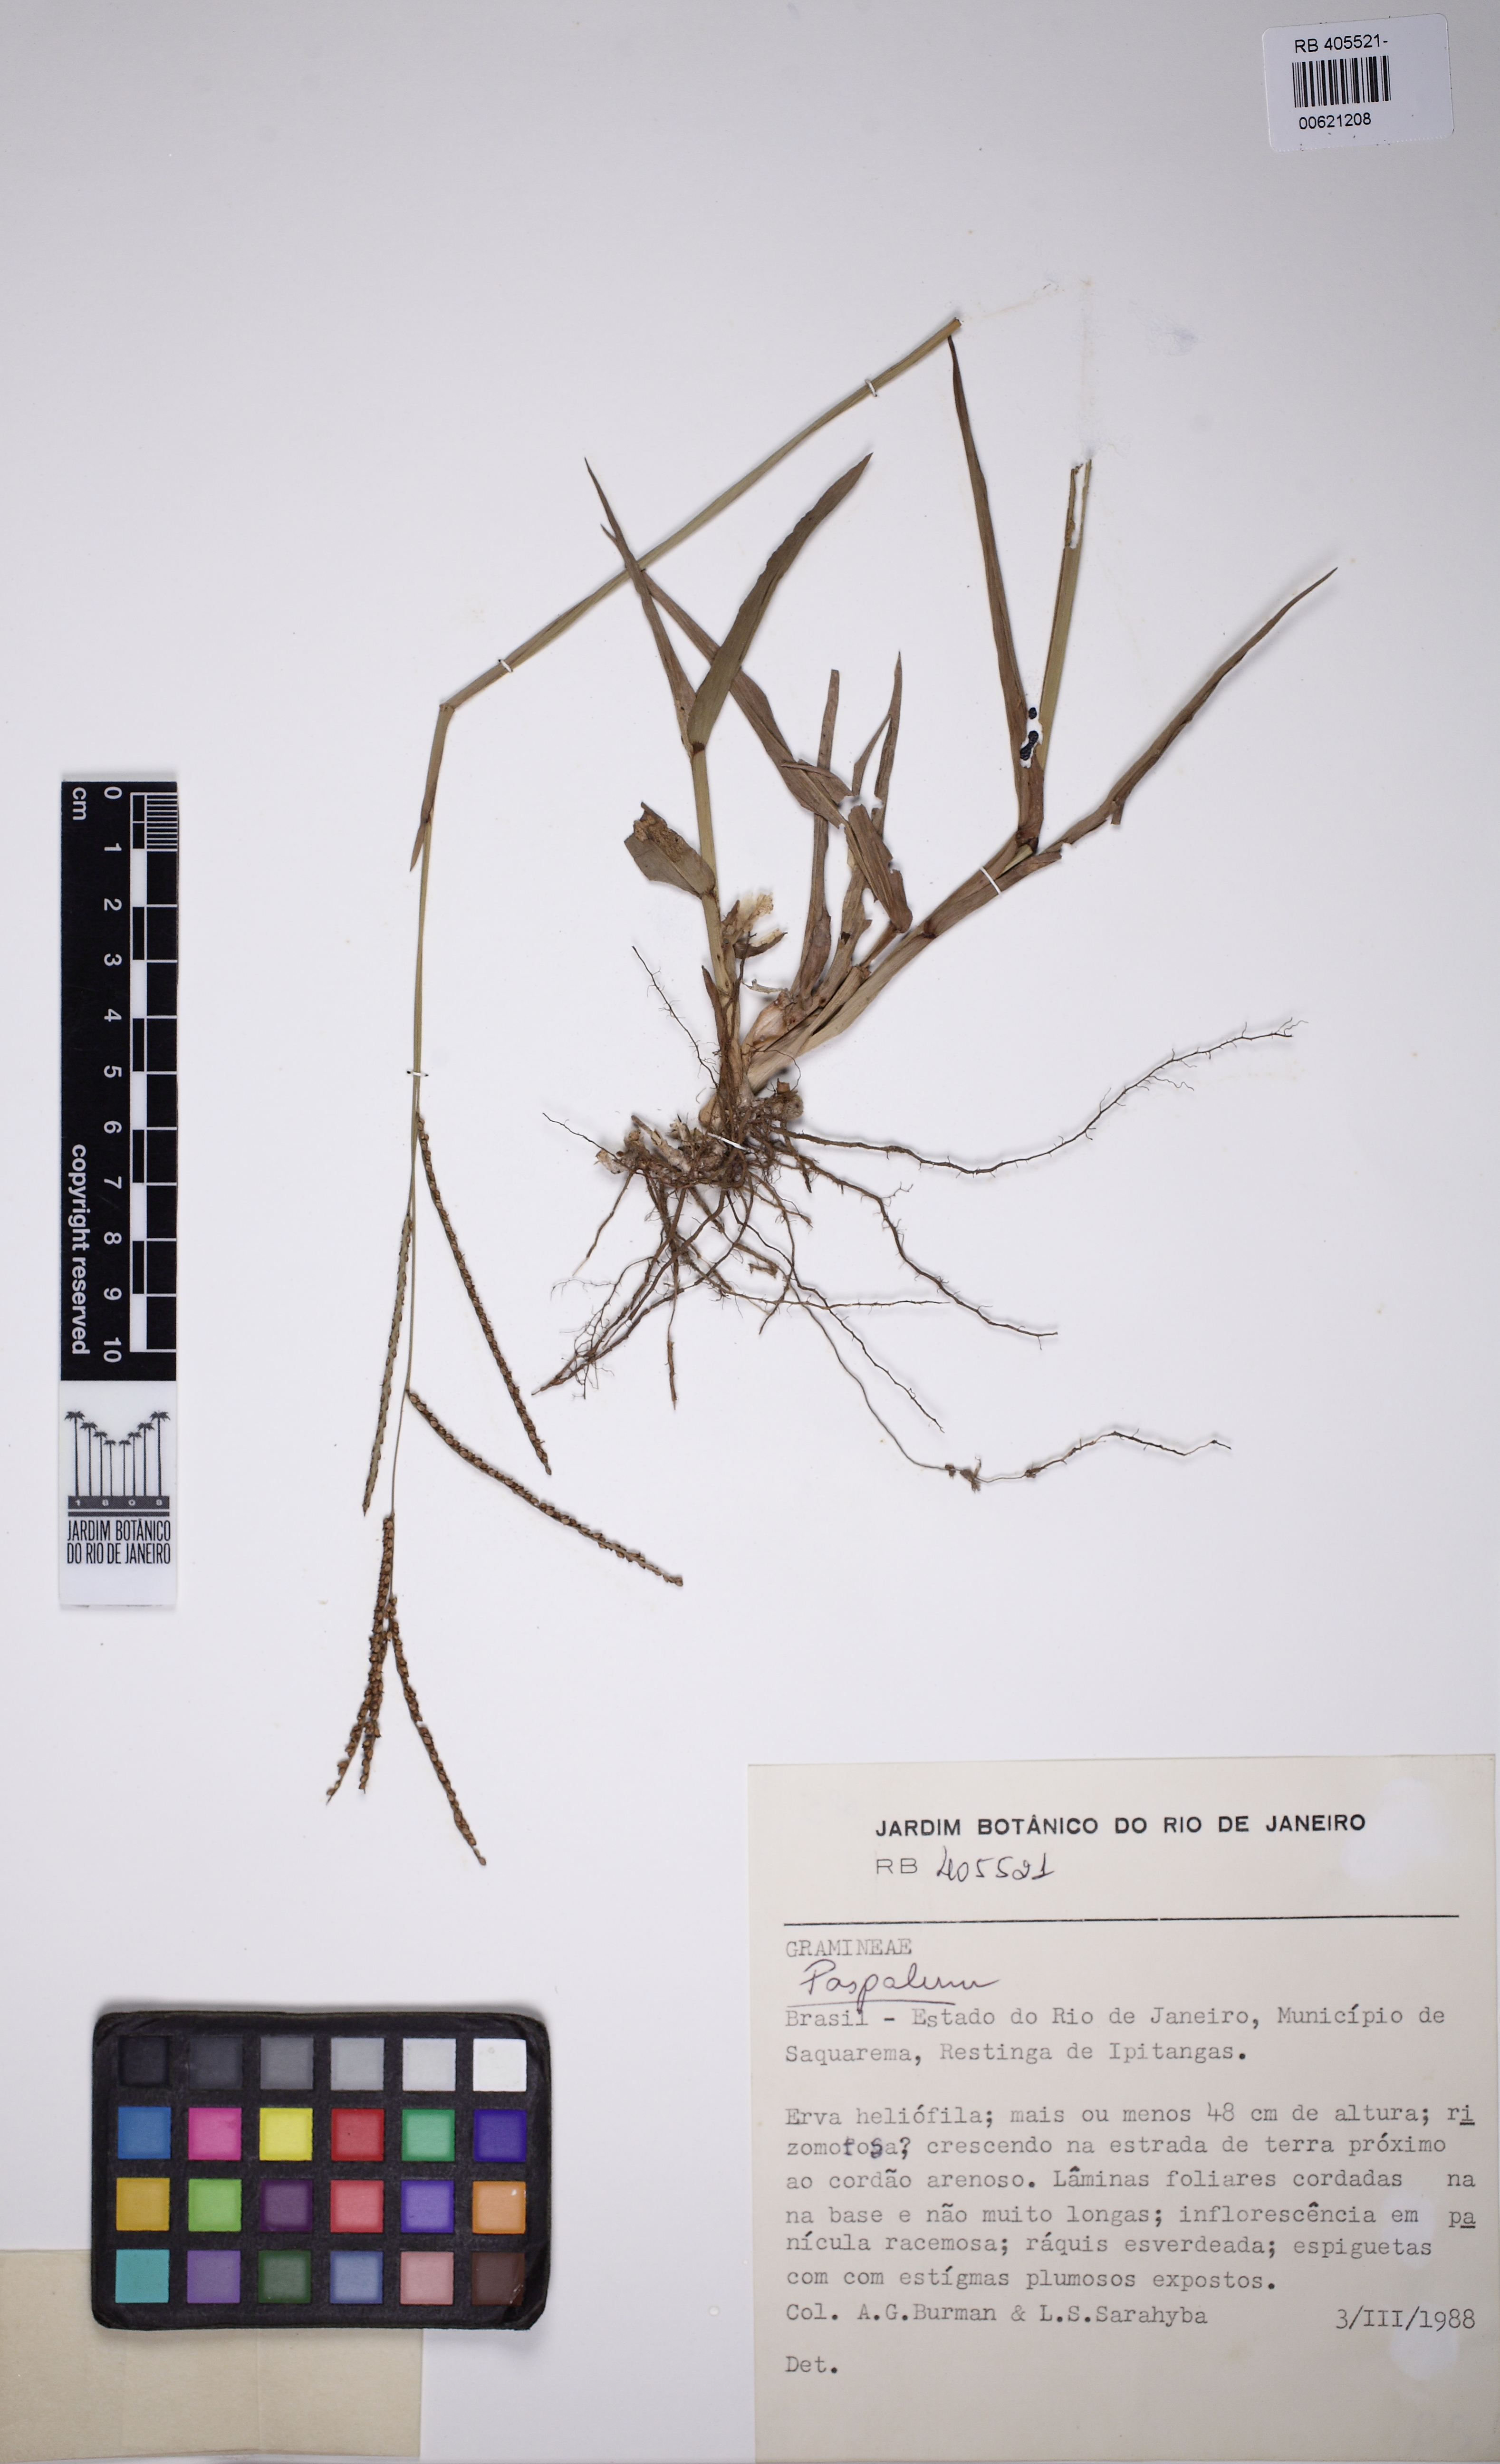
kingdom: Plantae
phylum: Tracheophyta
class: Liliopsida
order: Poales
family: Poaceae
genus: Paspalum
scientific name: Paspalum
